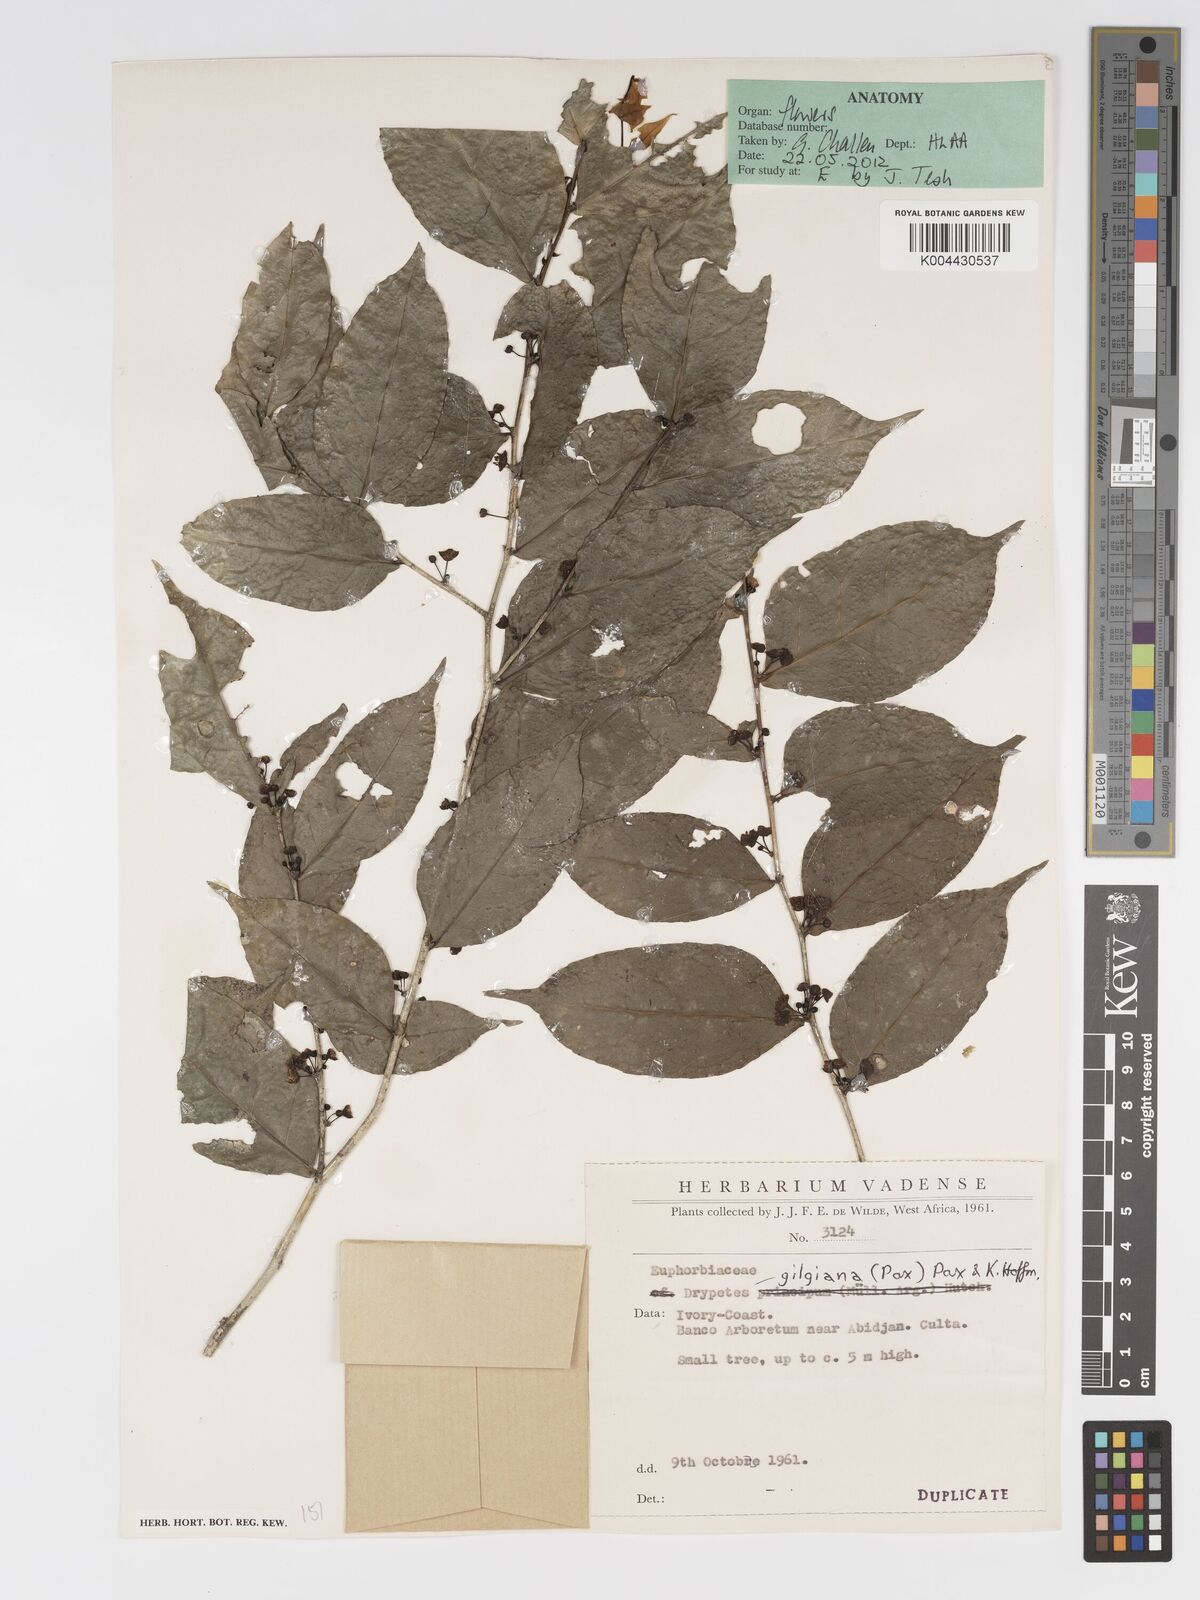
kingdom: Plantae
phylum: Tracheophyta
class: Magnoliopsida
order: Malpighiales
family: Putranjivaceae
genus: Drypetes
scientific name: Drypetes gilgiana
